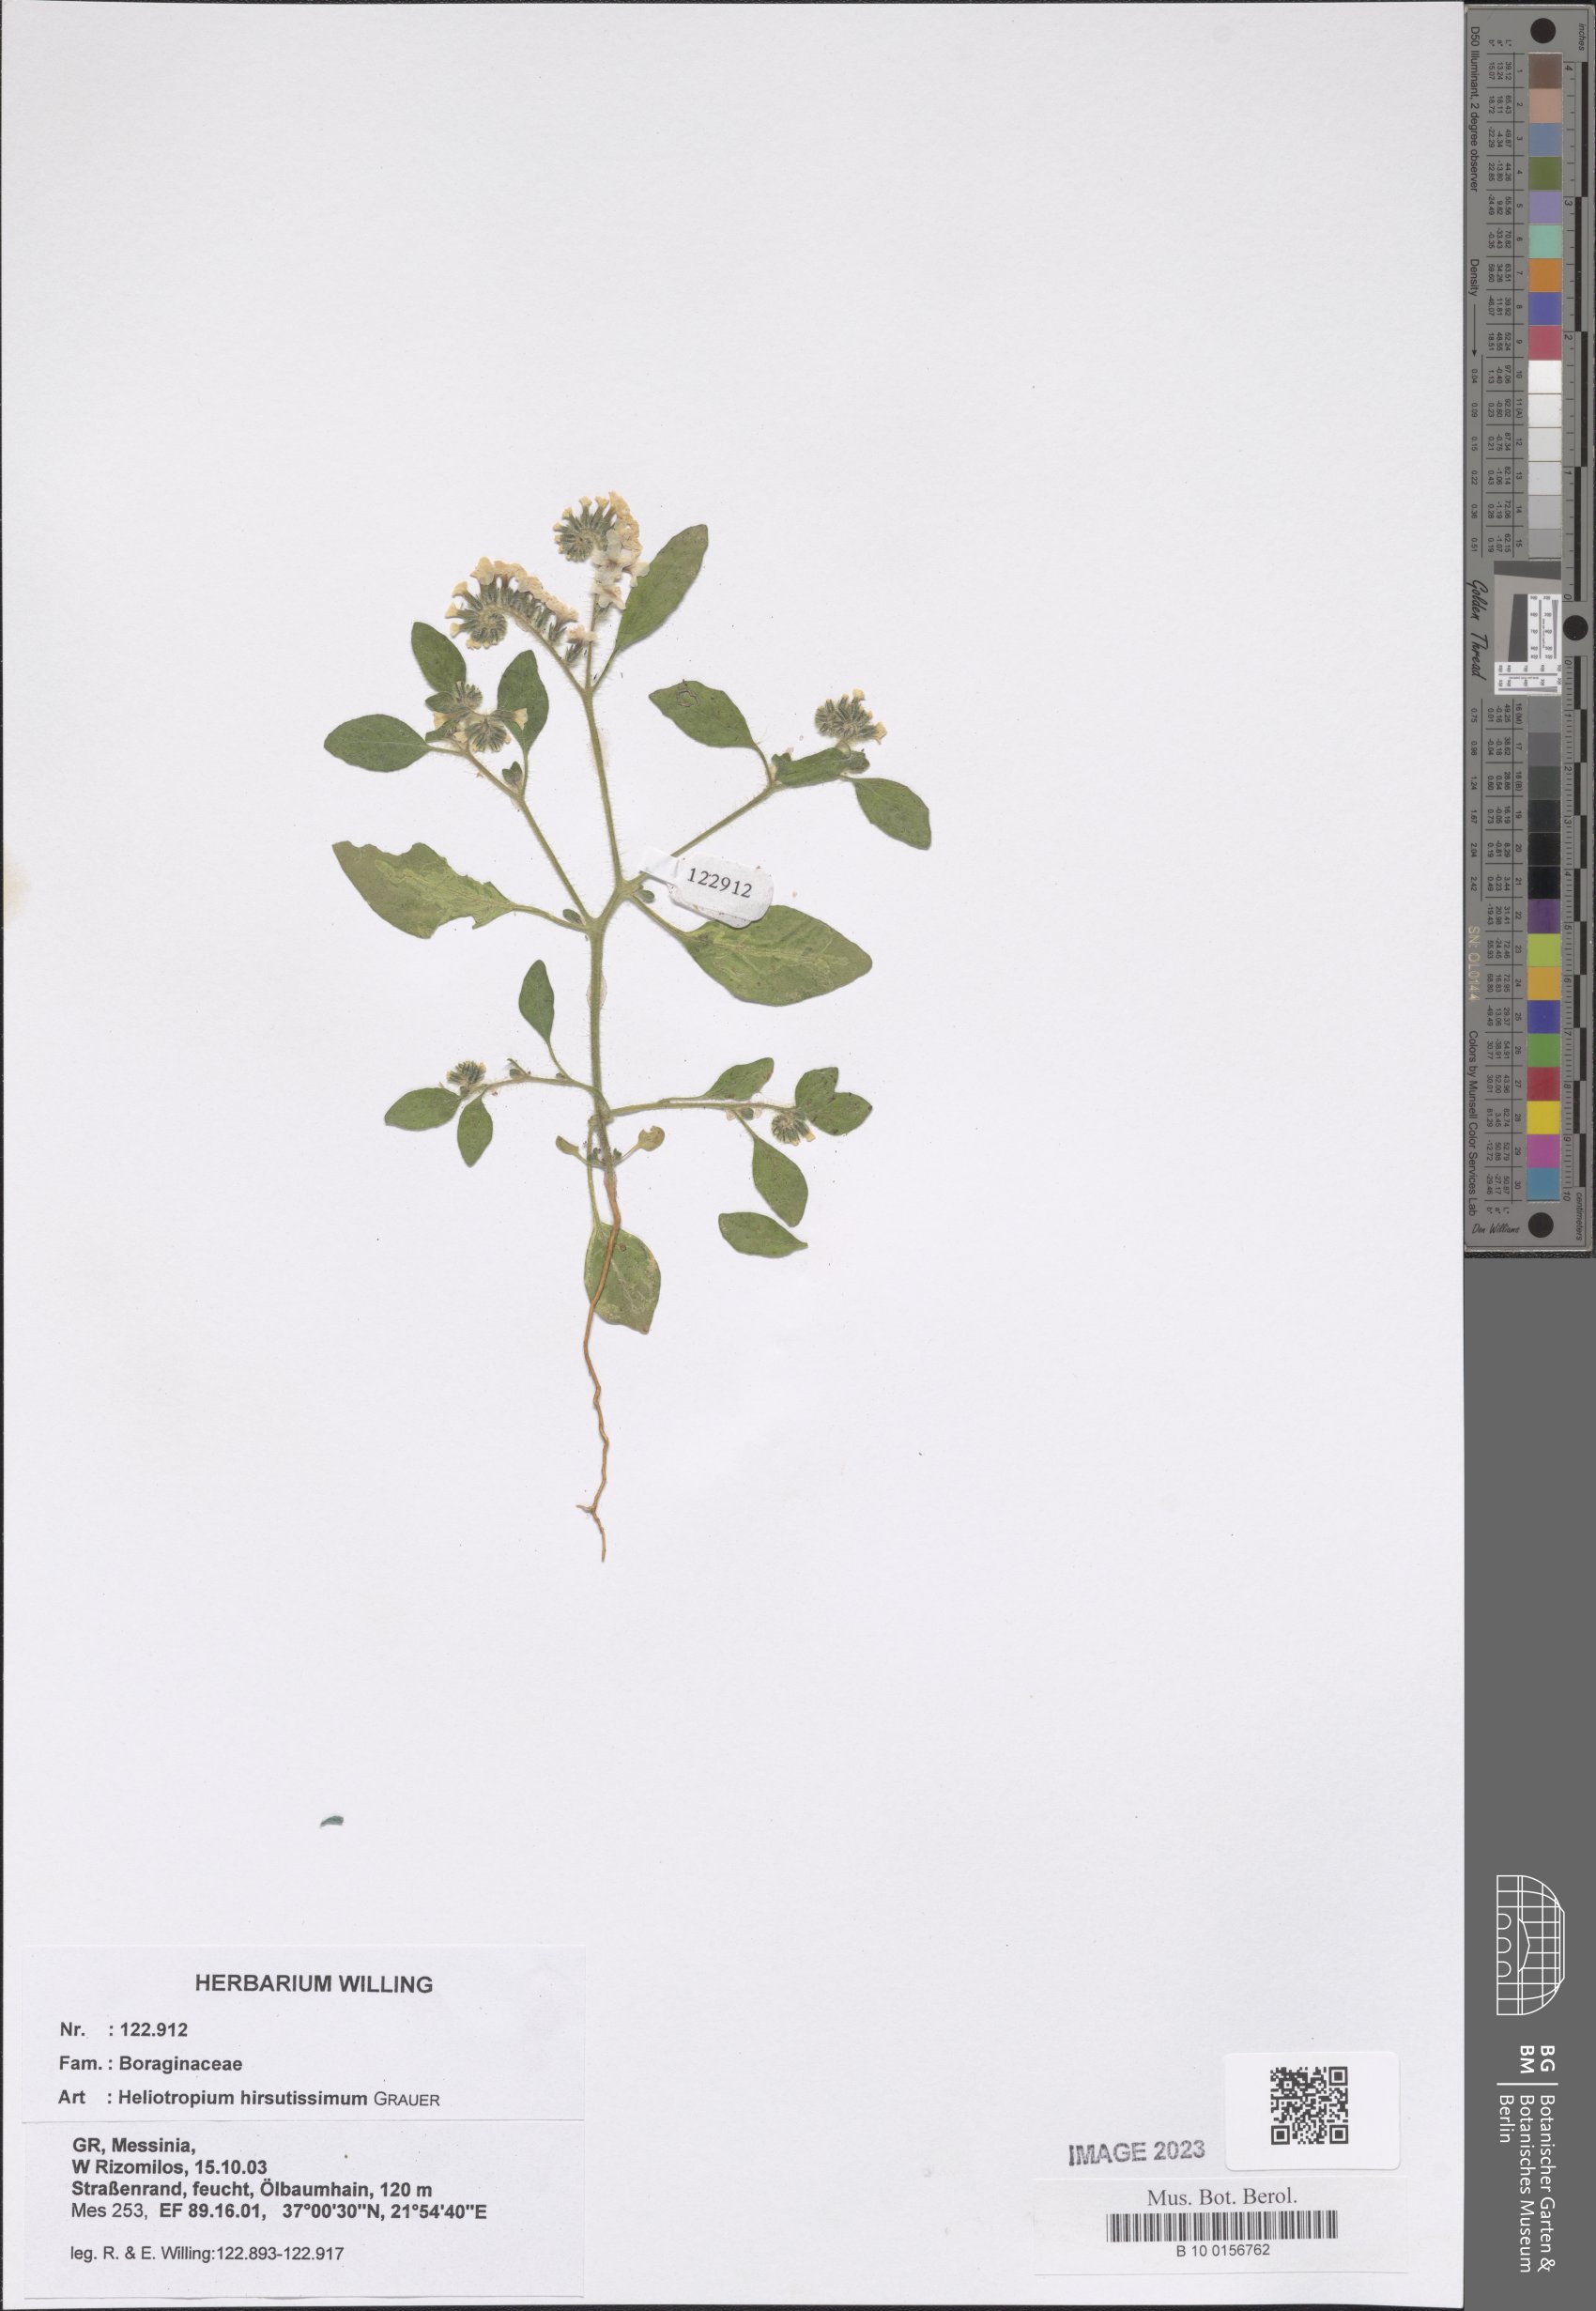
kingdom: Plantae
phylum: Tracheophyta
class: Magnoliopsida
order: Boraginales
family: Heliotropiaceae
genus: Heliotropium
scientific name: Heliotropium hirsutissimum
